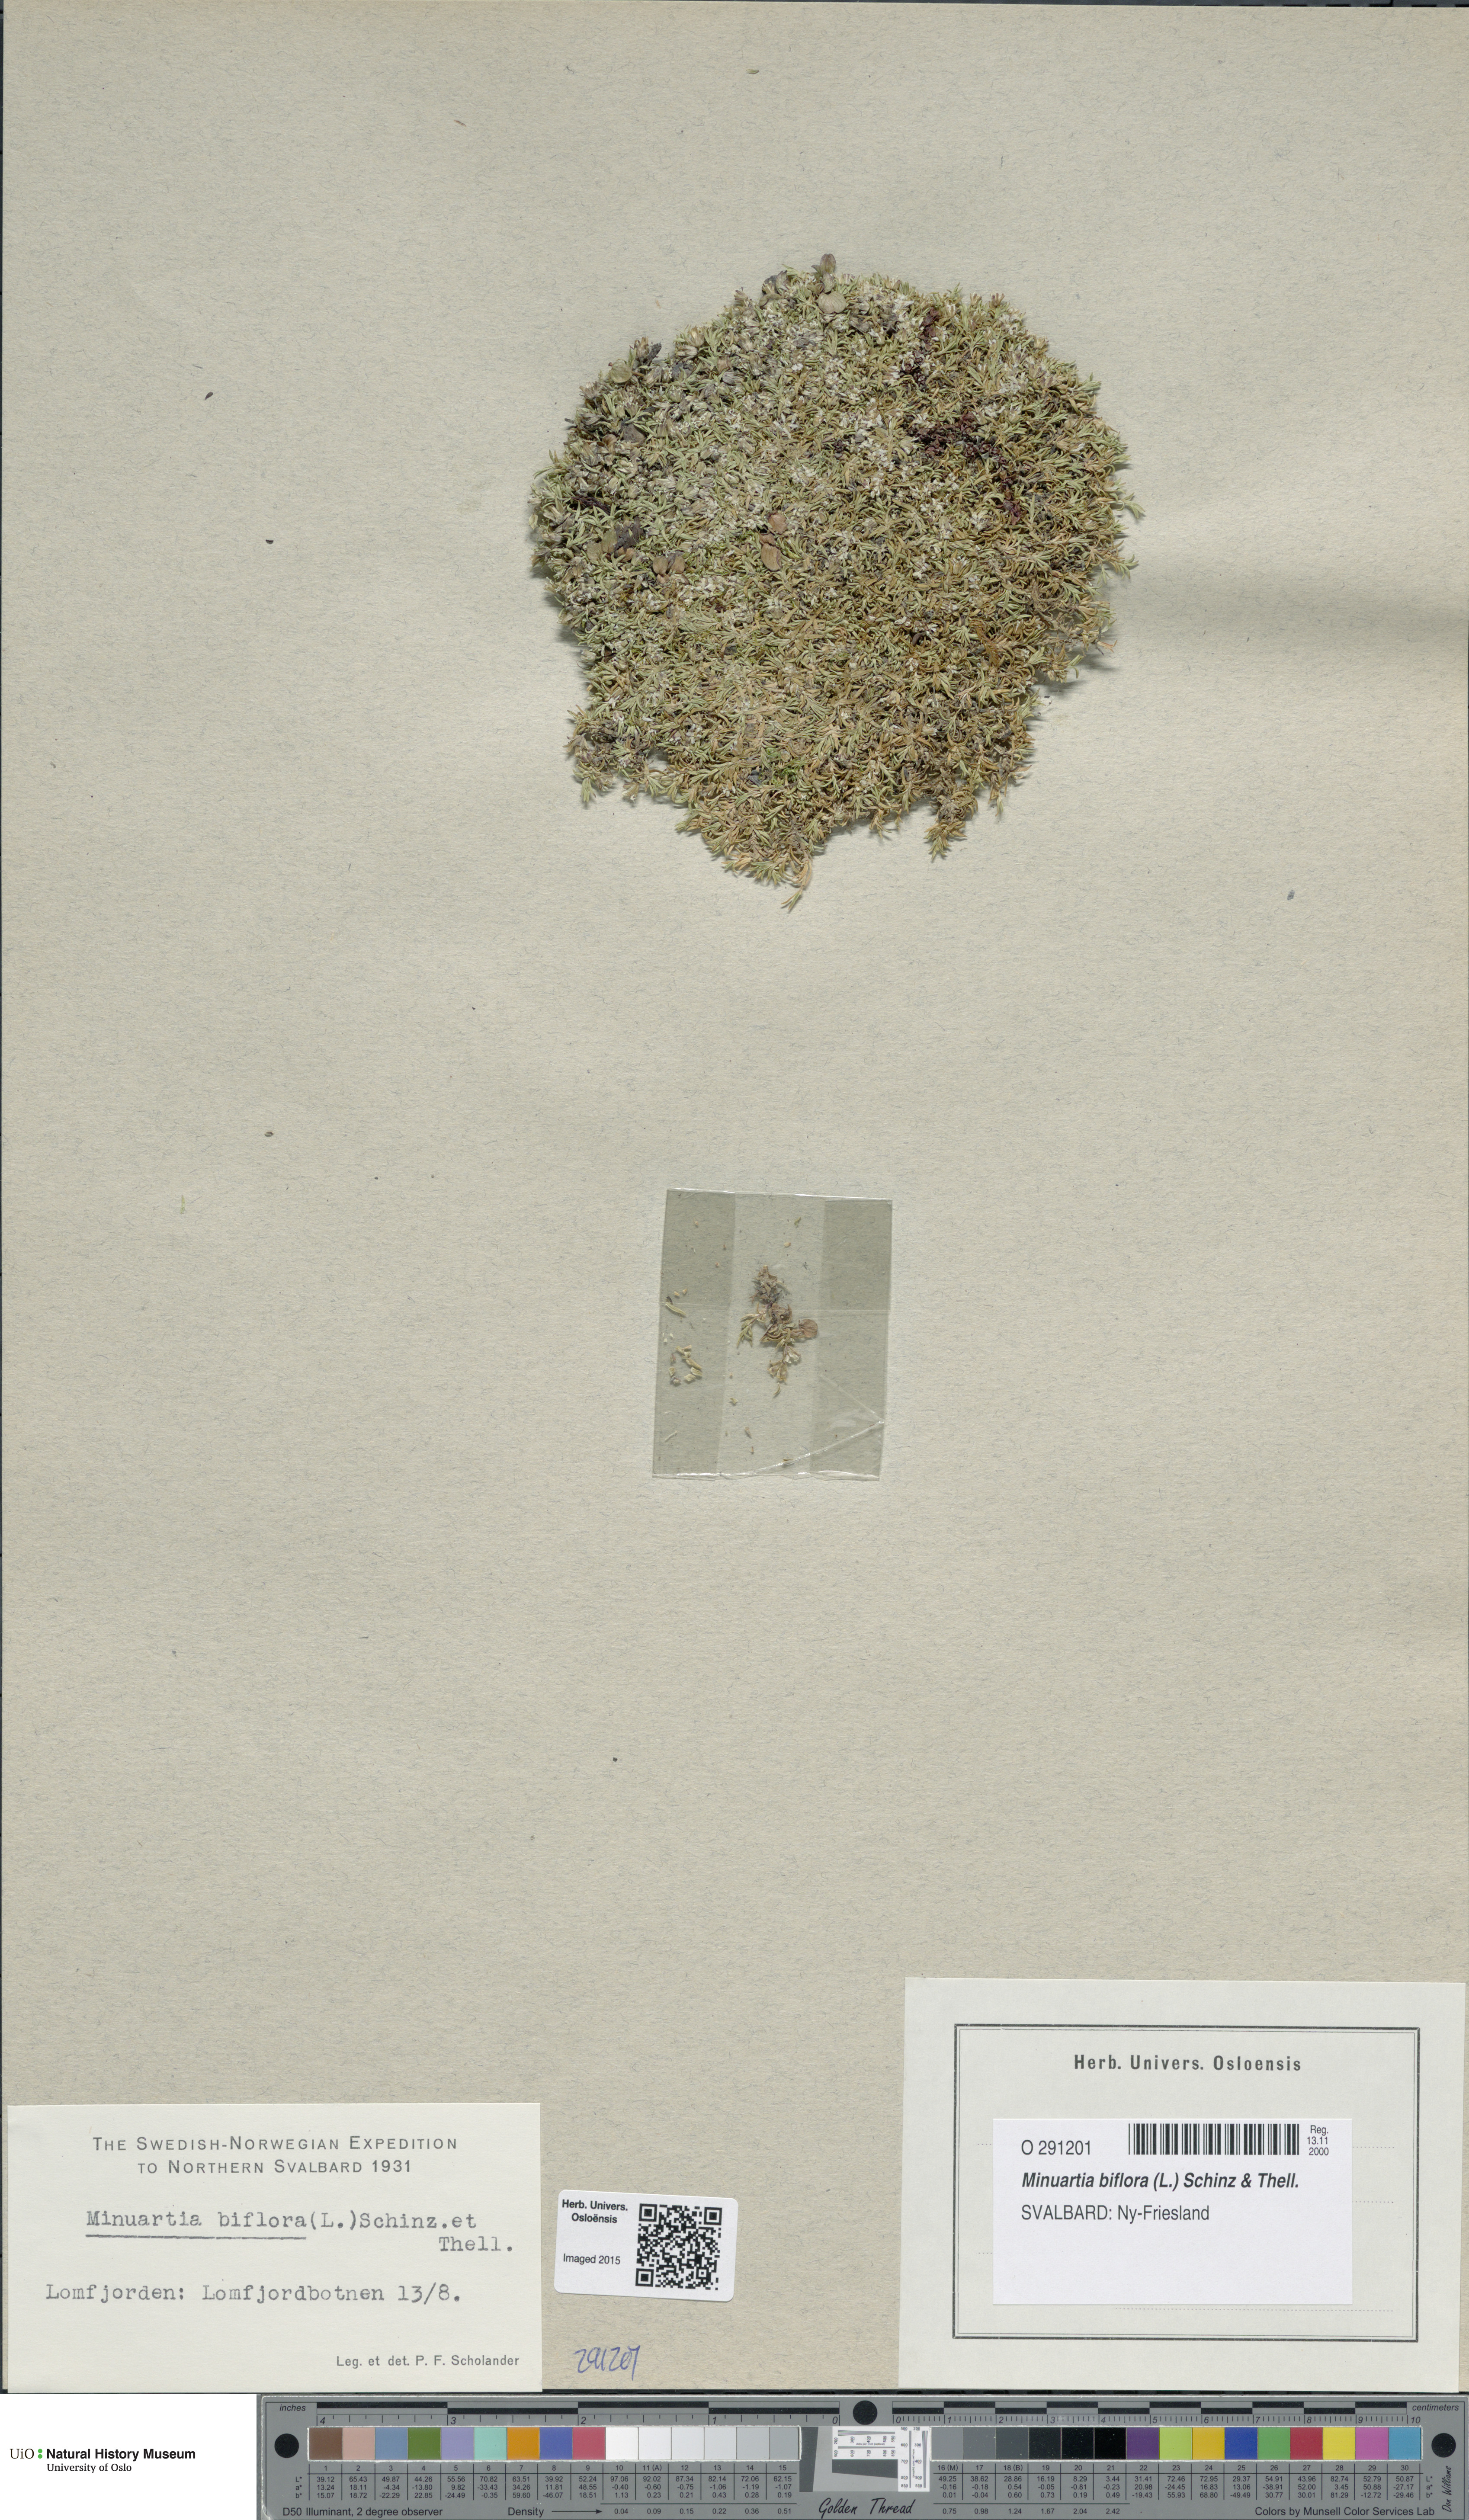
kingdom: Plantae
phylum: Tracheophyta
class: Magnoliopsida
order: Caryophyllales
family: Caryophyllaceae
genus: Cherleria
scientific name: Cherleria biflora
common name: Mountain sandwort
